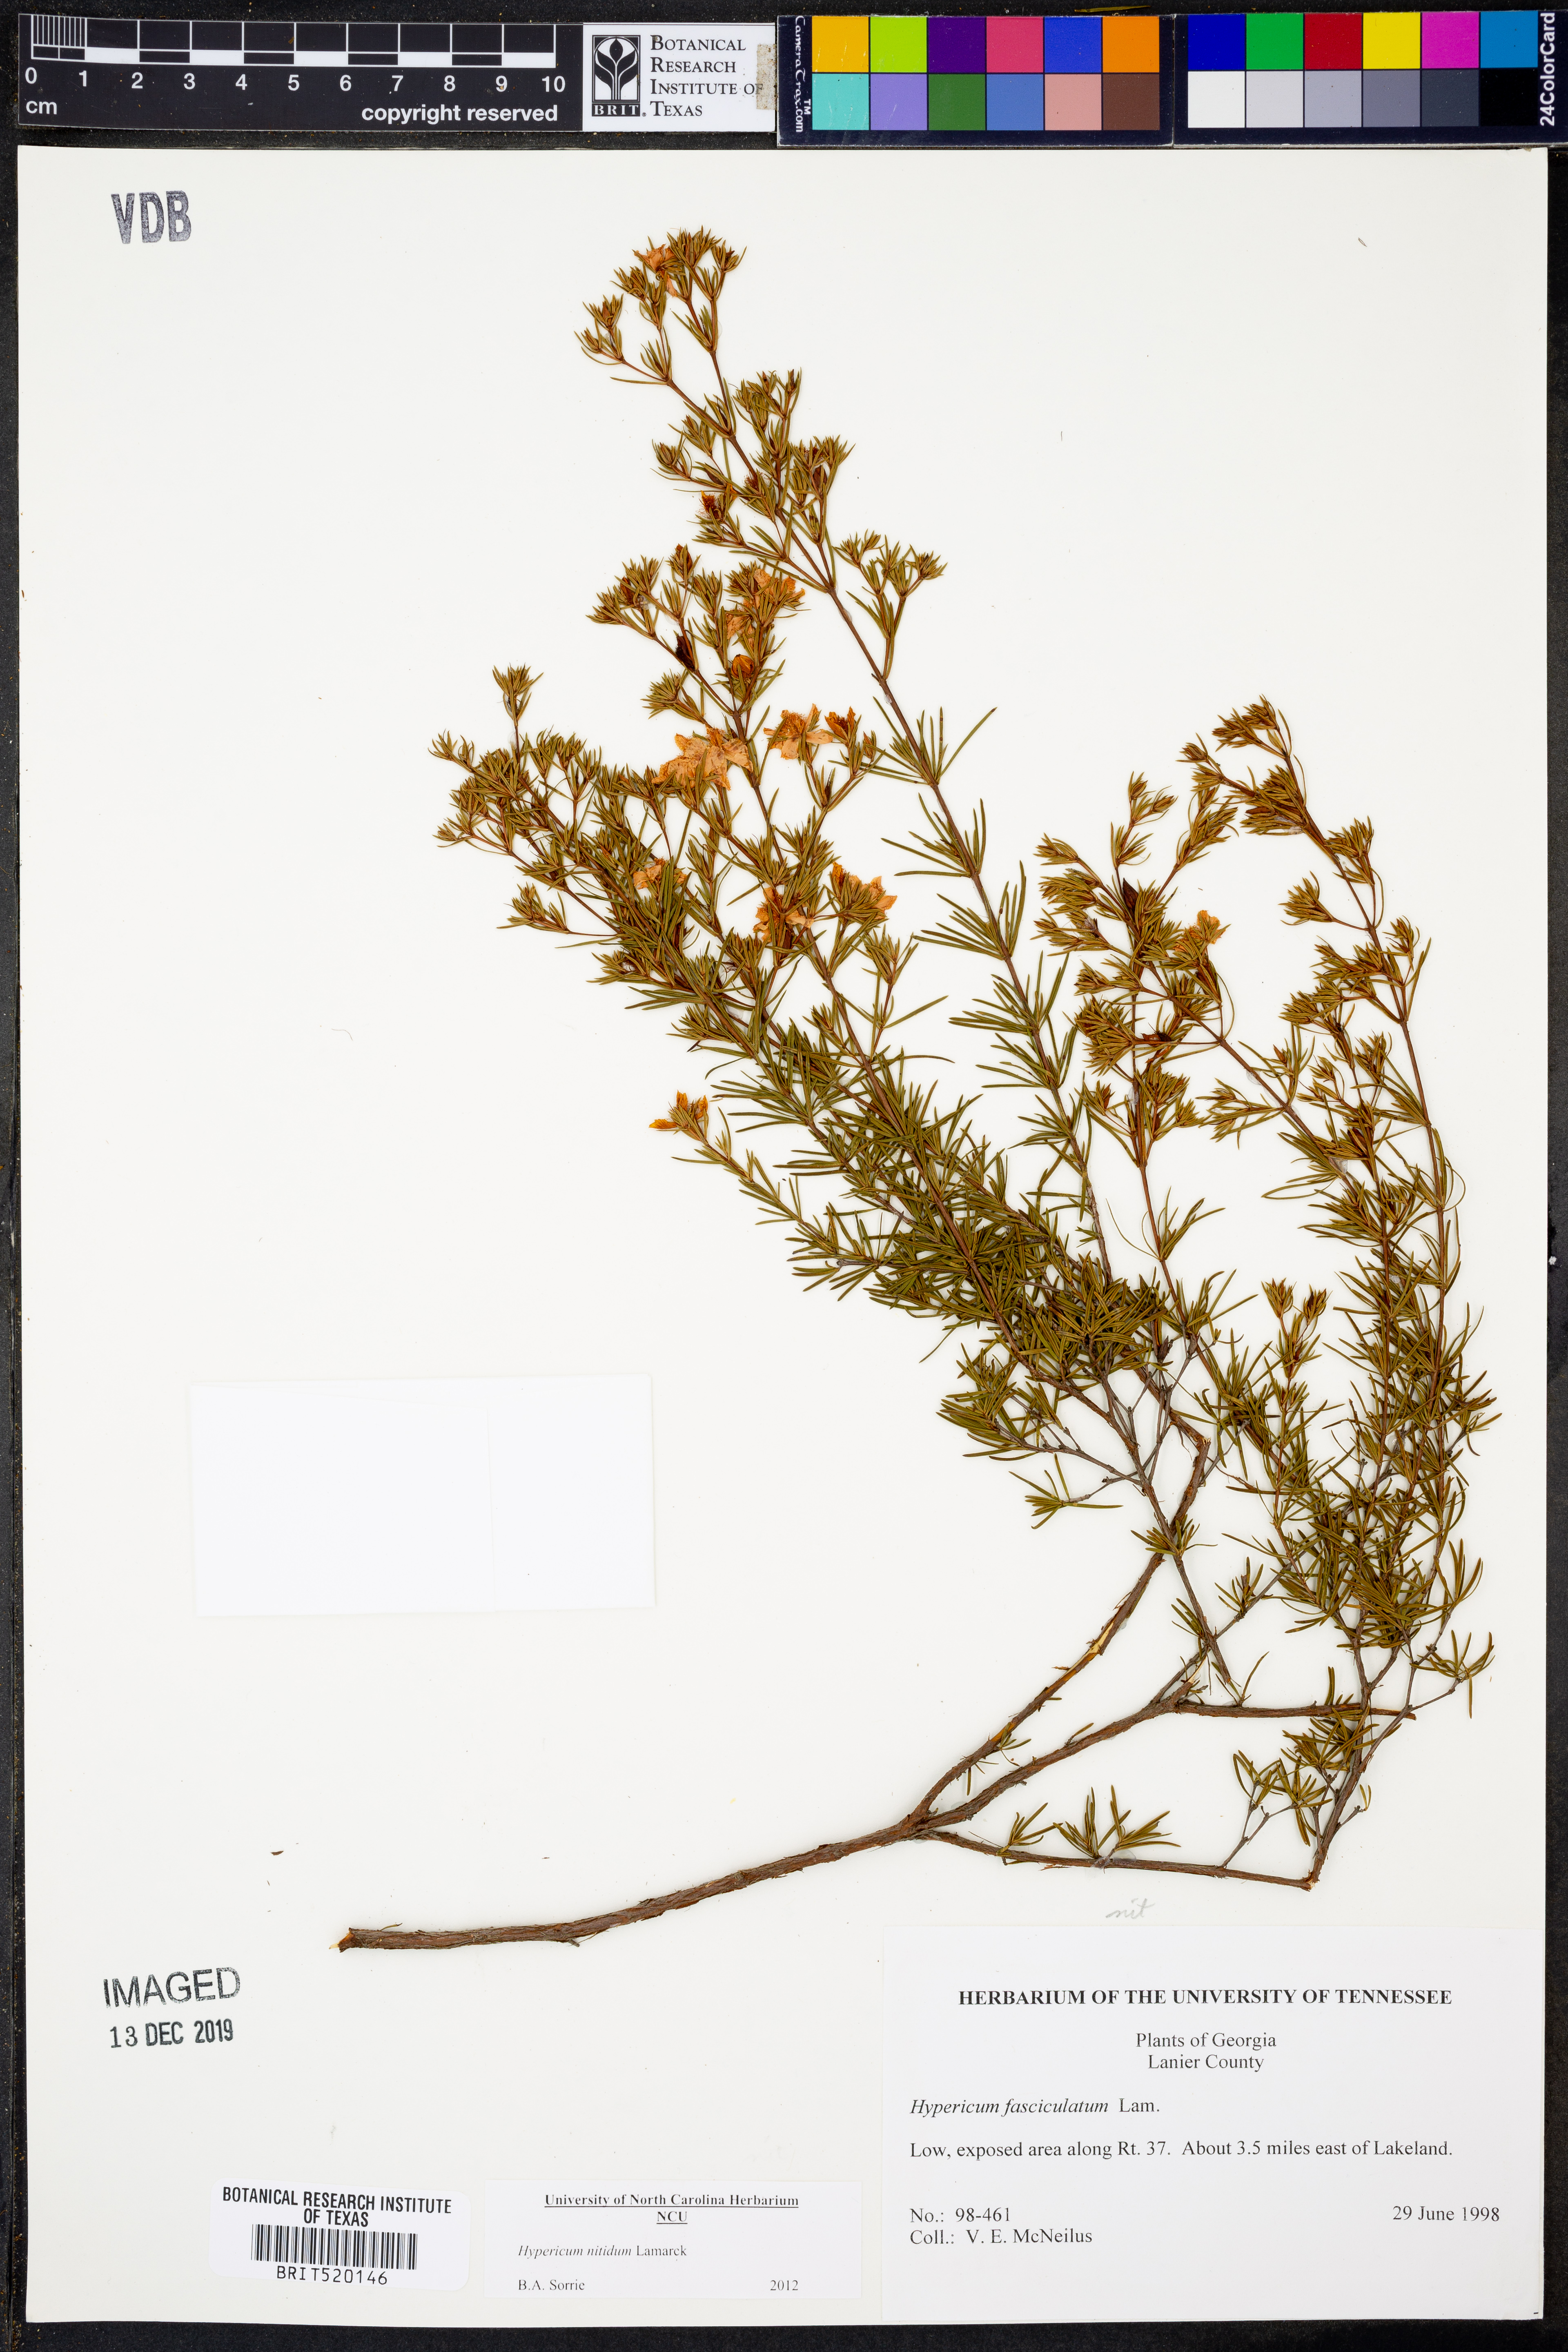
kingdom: Plantae
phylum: Tracheophyta
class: Magnoliopsida
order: Malpighiales
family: Hypericaceae
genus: Hypericum
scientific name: Hypericum nitidum
